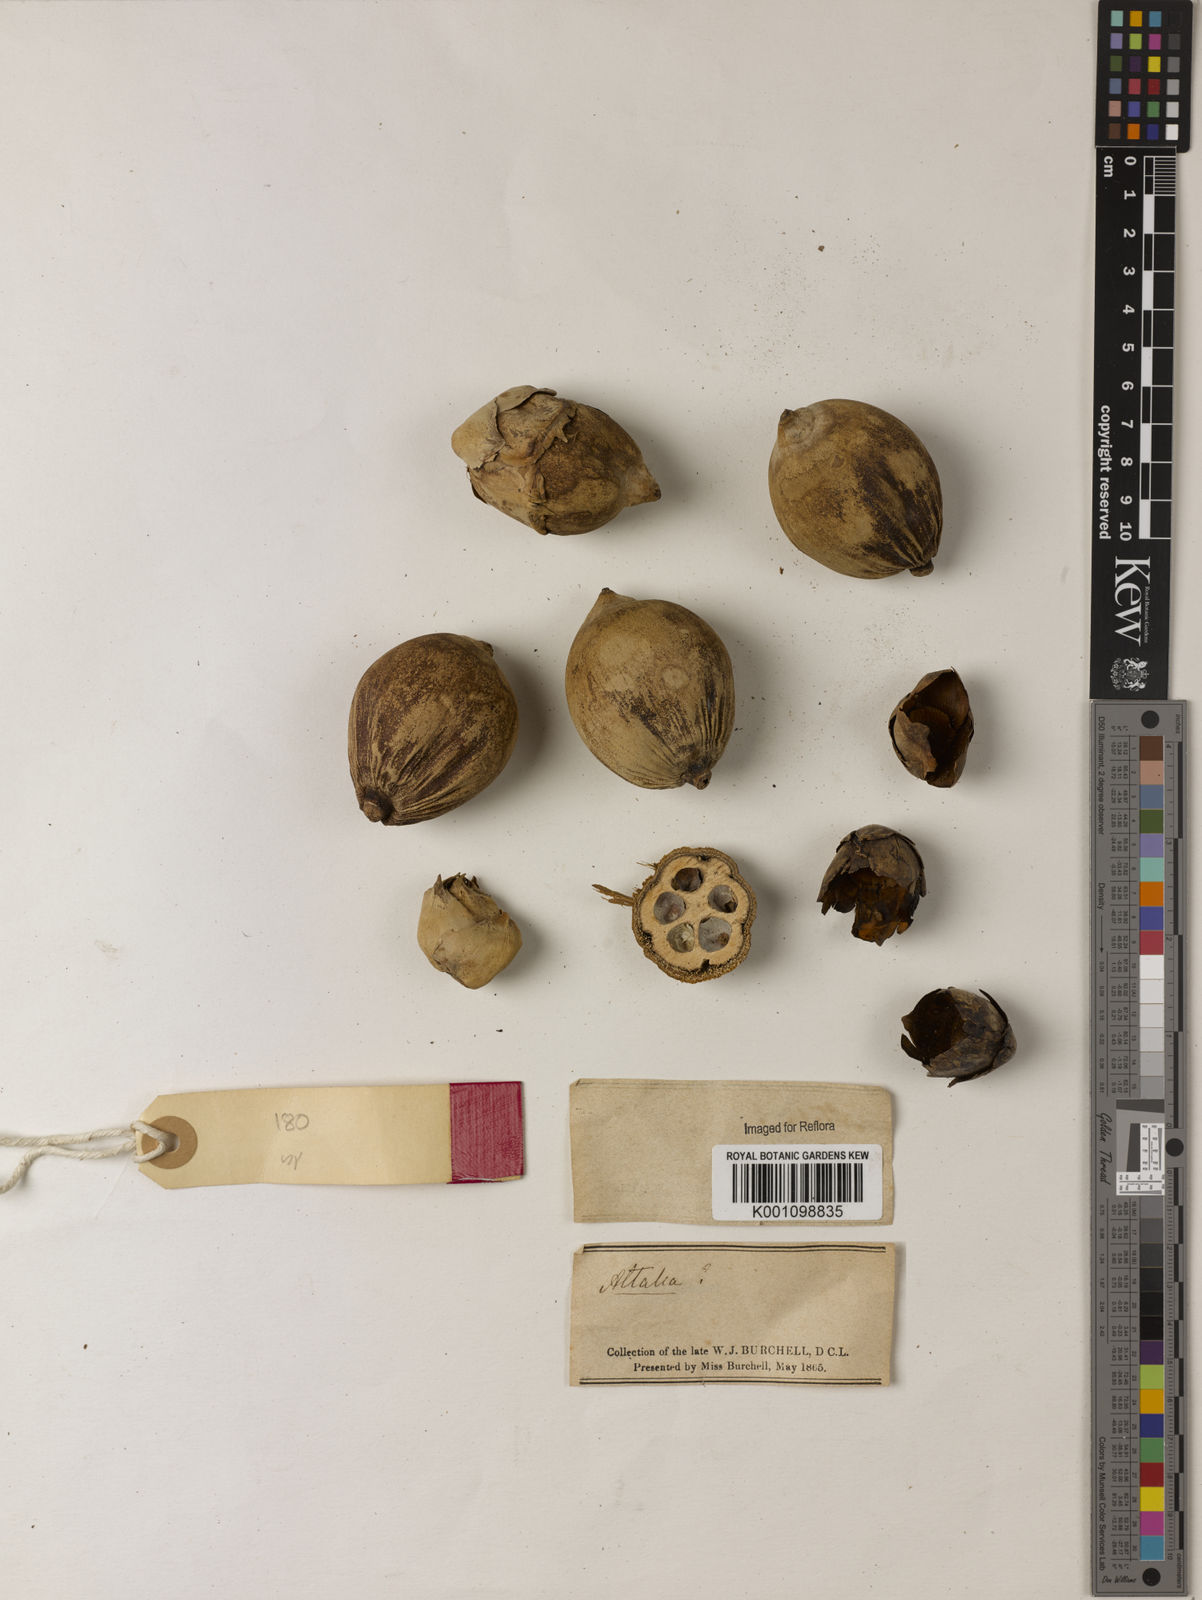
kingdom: Plantae
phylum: Tracheophyta
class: Liliopsida
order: Arecales
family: Arecaceae
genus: Attalea
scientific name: Attalea
